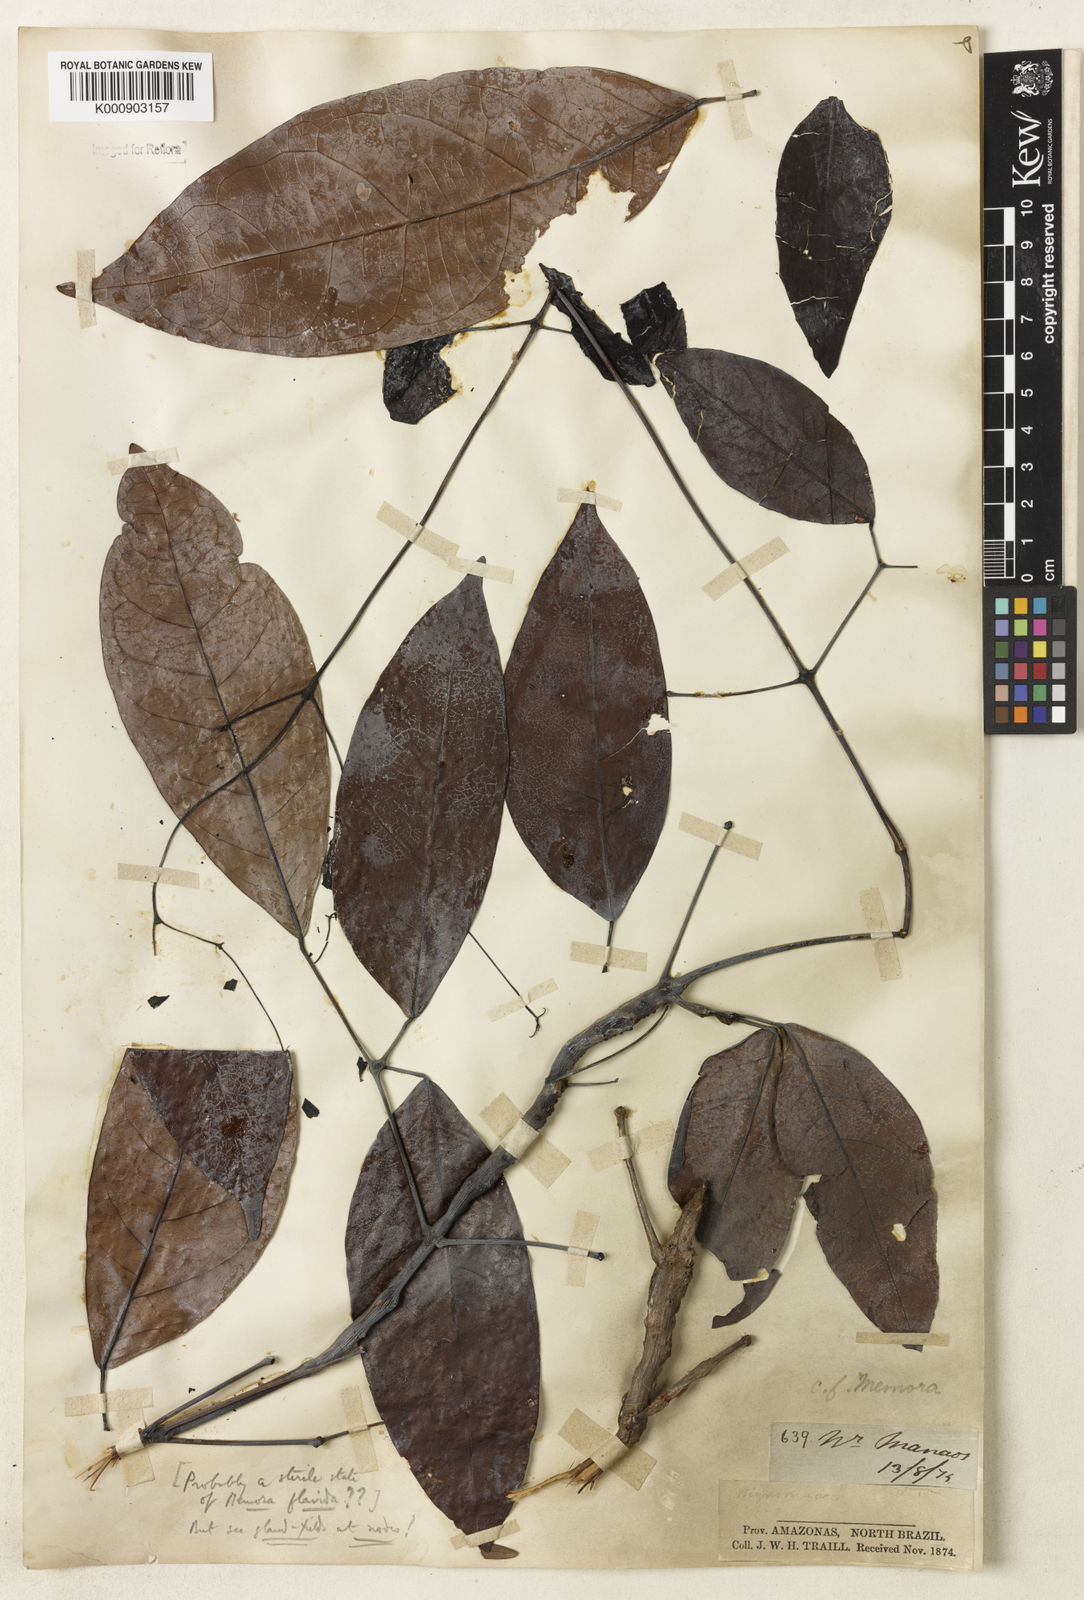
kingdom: Plantae
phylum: Tracheophyta
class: Magnoliopsida
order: Lamiales
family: Bignoniaceae
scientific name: Bignoniaceae
